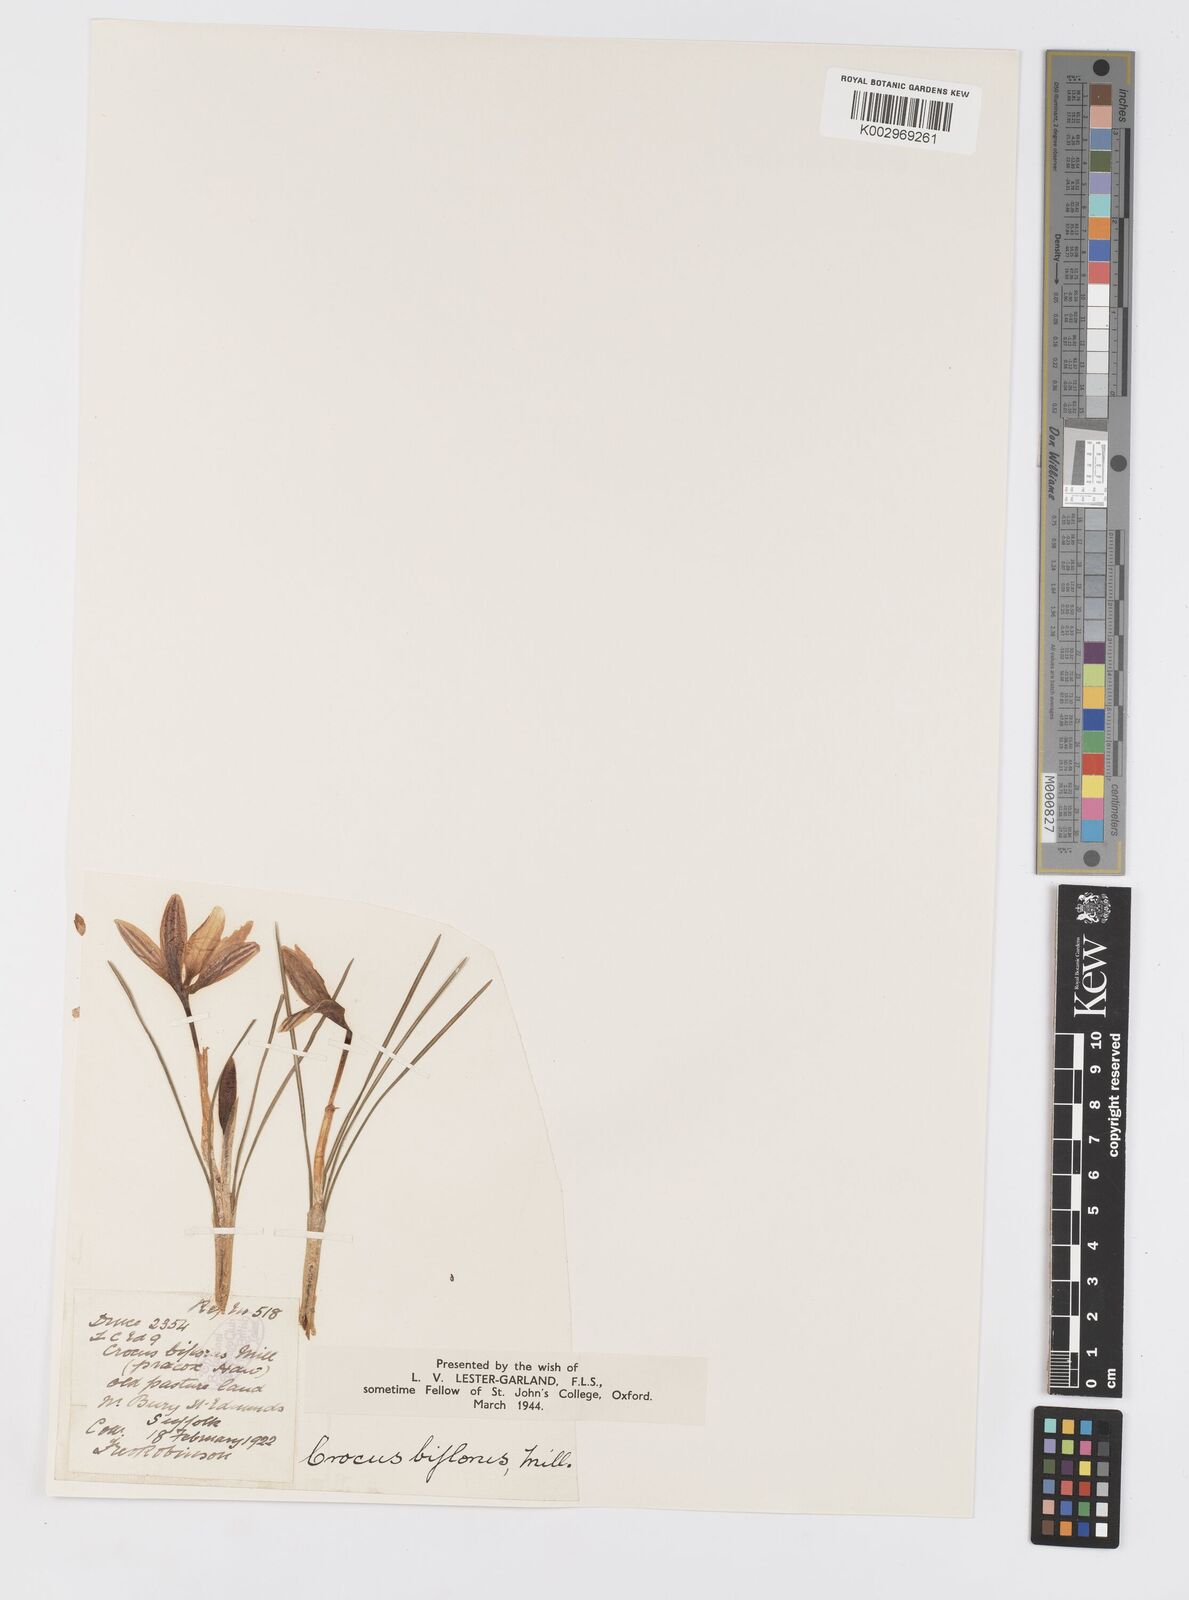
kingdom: Plantae
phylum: Tracheophyta
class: Liliopsida
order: Asparagales
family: Iridaceae
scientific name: Iridaceae
